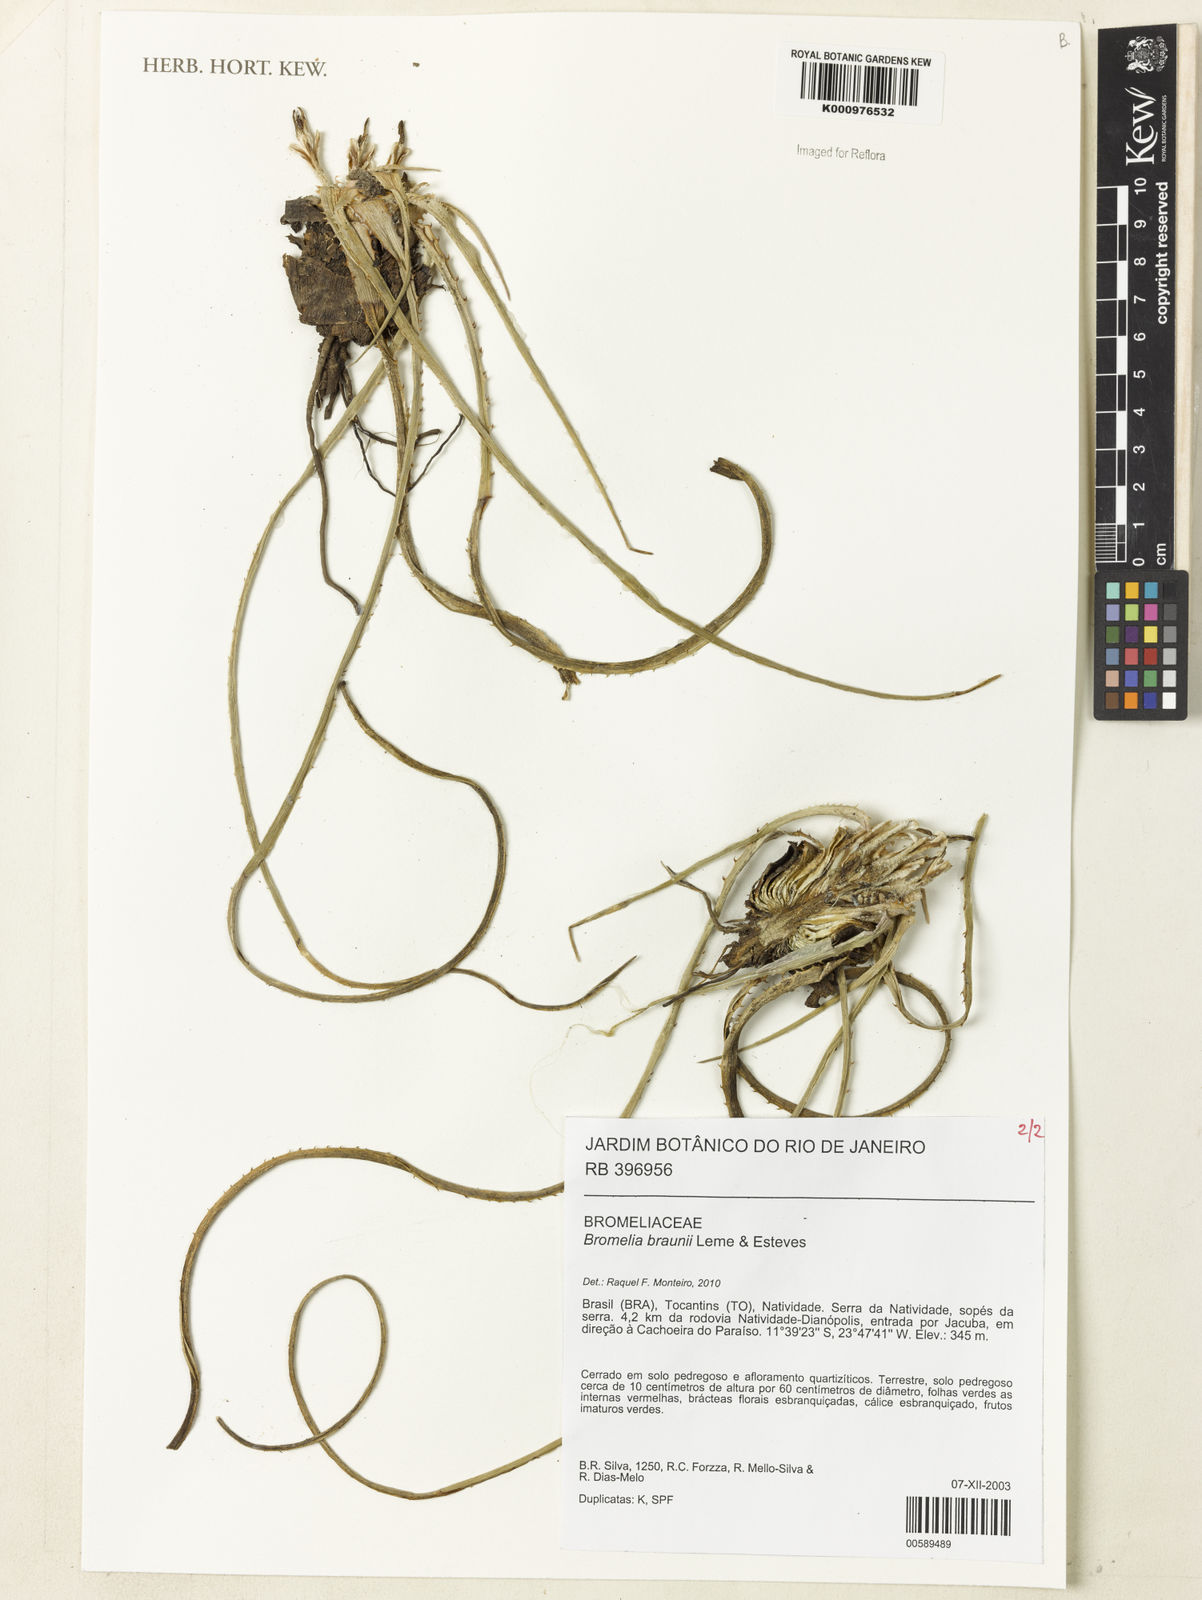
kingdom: Plantae
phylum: Tracheophyta
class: Liliopsida
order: Poales
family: Bromeliaceae
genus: Bromelia
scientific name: Bromelia braunii
